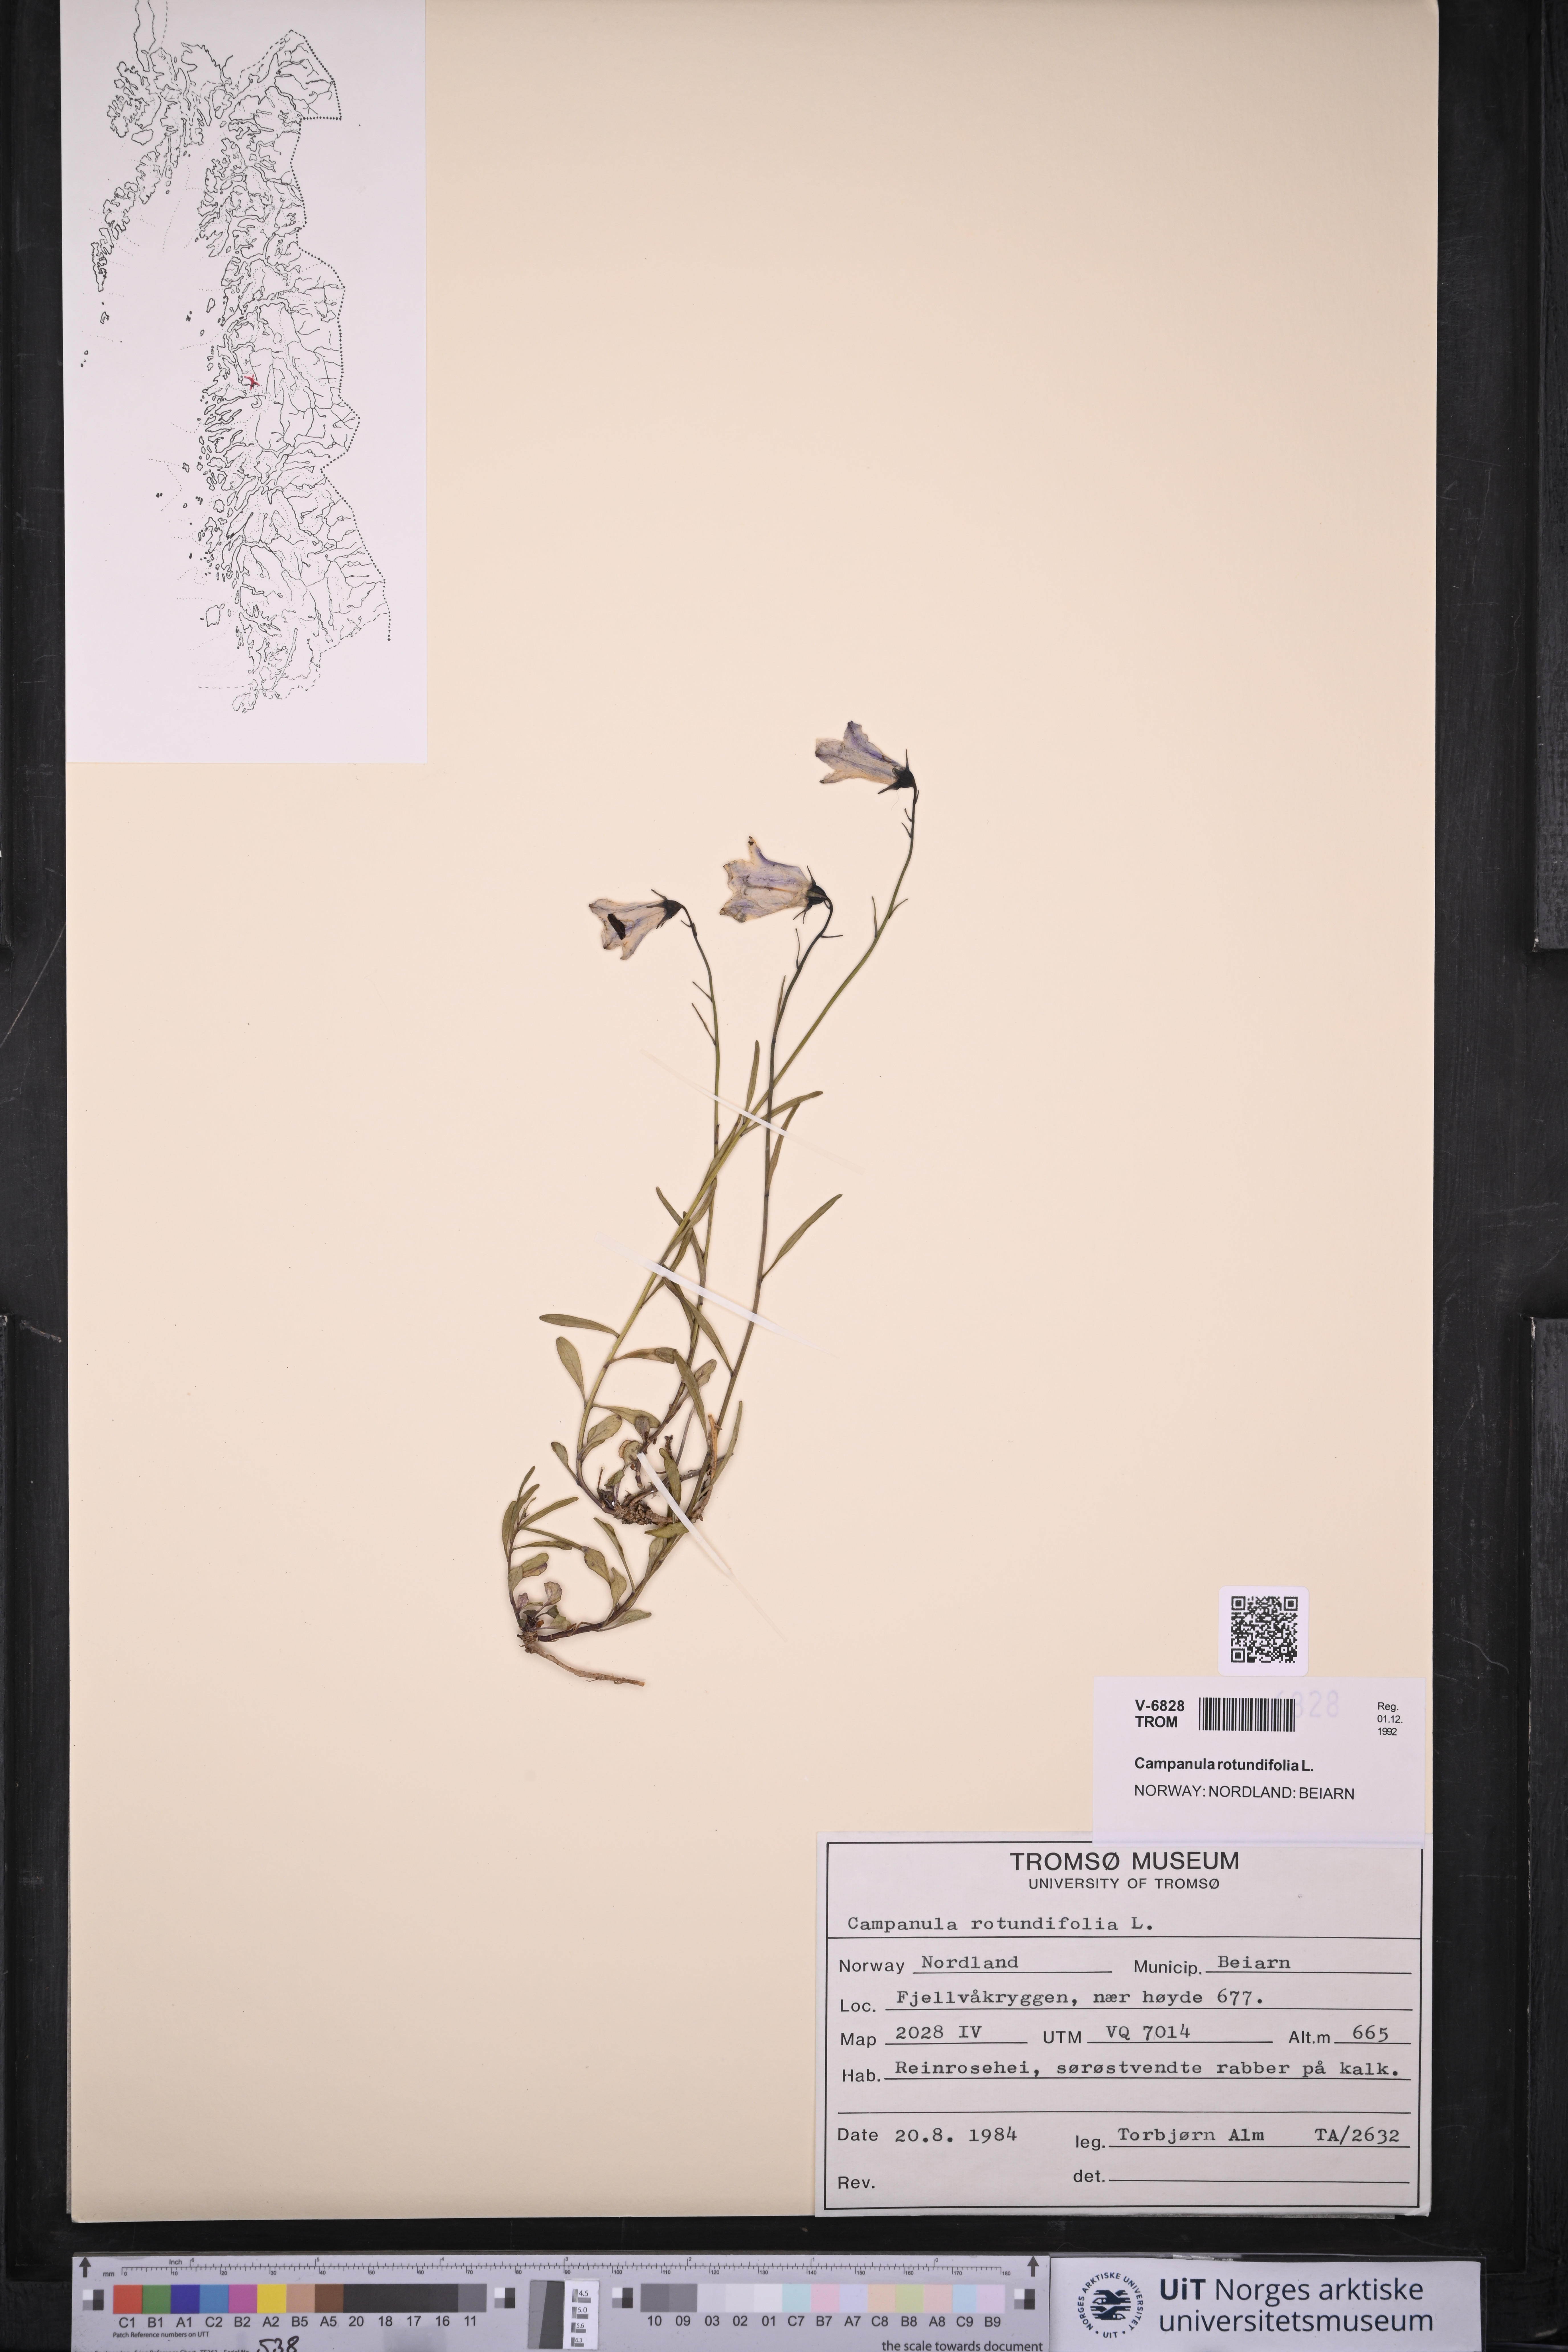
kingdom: Plantae
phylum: Tracheophyta
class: Magnoliopsida
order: Asterales
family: Campanulaceae
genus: Campanula
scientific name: Campanula rotundifolia
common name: Harebell
